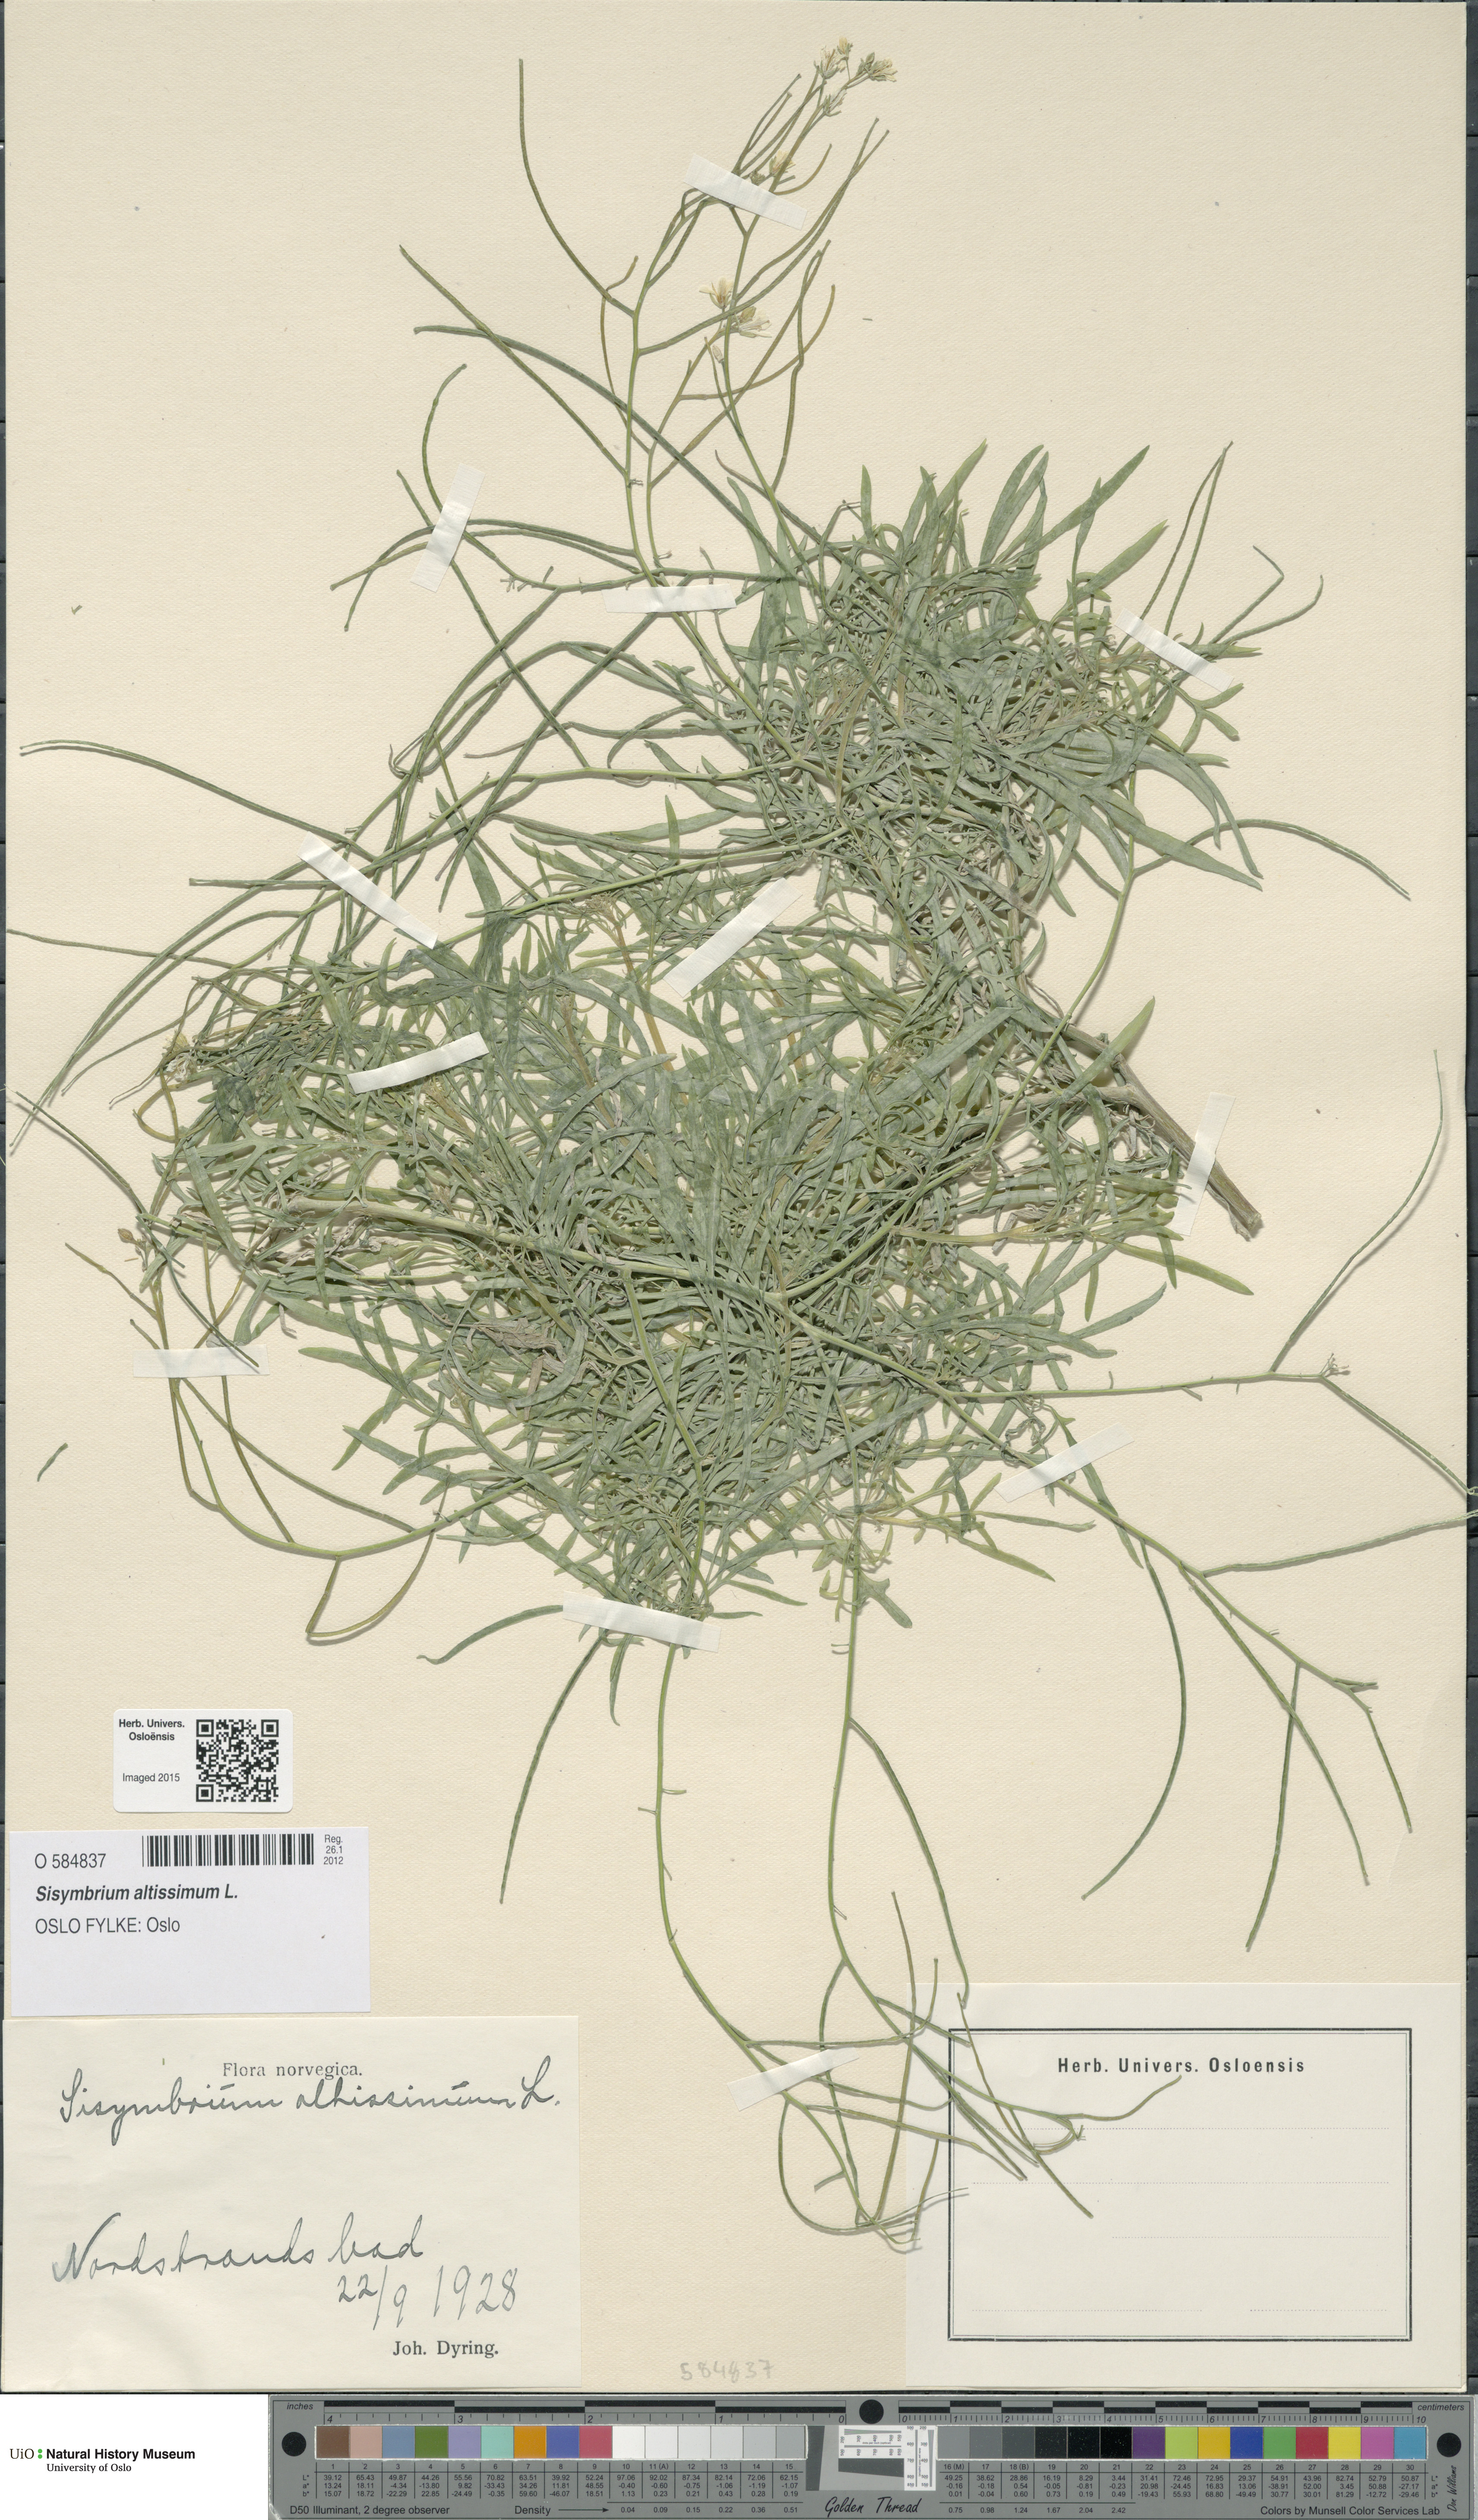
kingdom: Plantae
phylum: Tracheophyta
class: Magnoliopsida
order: Brassicales
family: Brassicaceae
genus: Sisymbrium
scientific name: Sisymbrium altissimum
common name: Tall rocket
